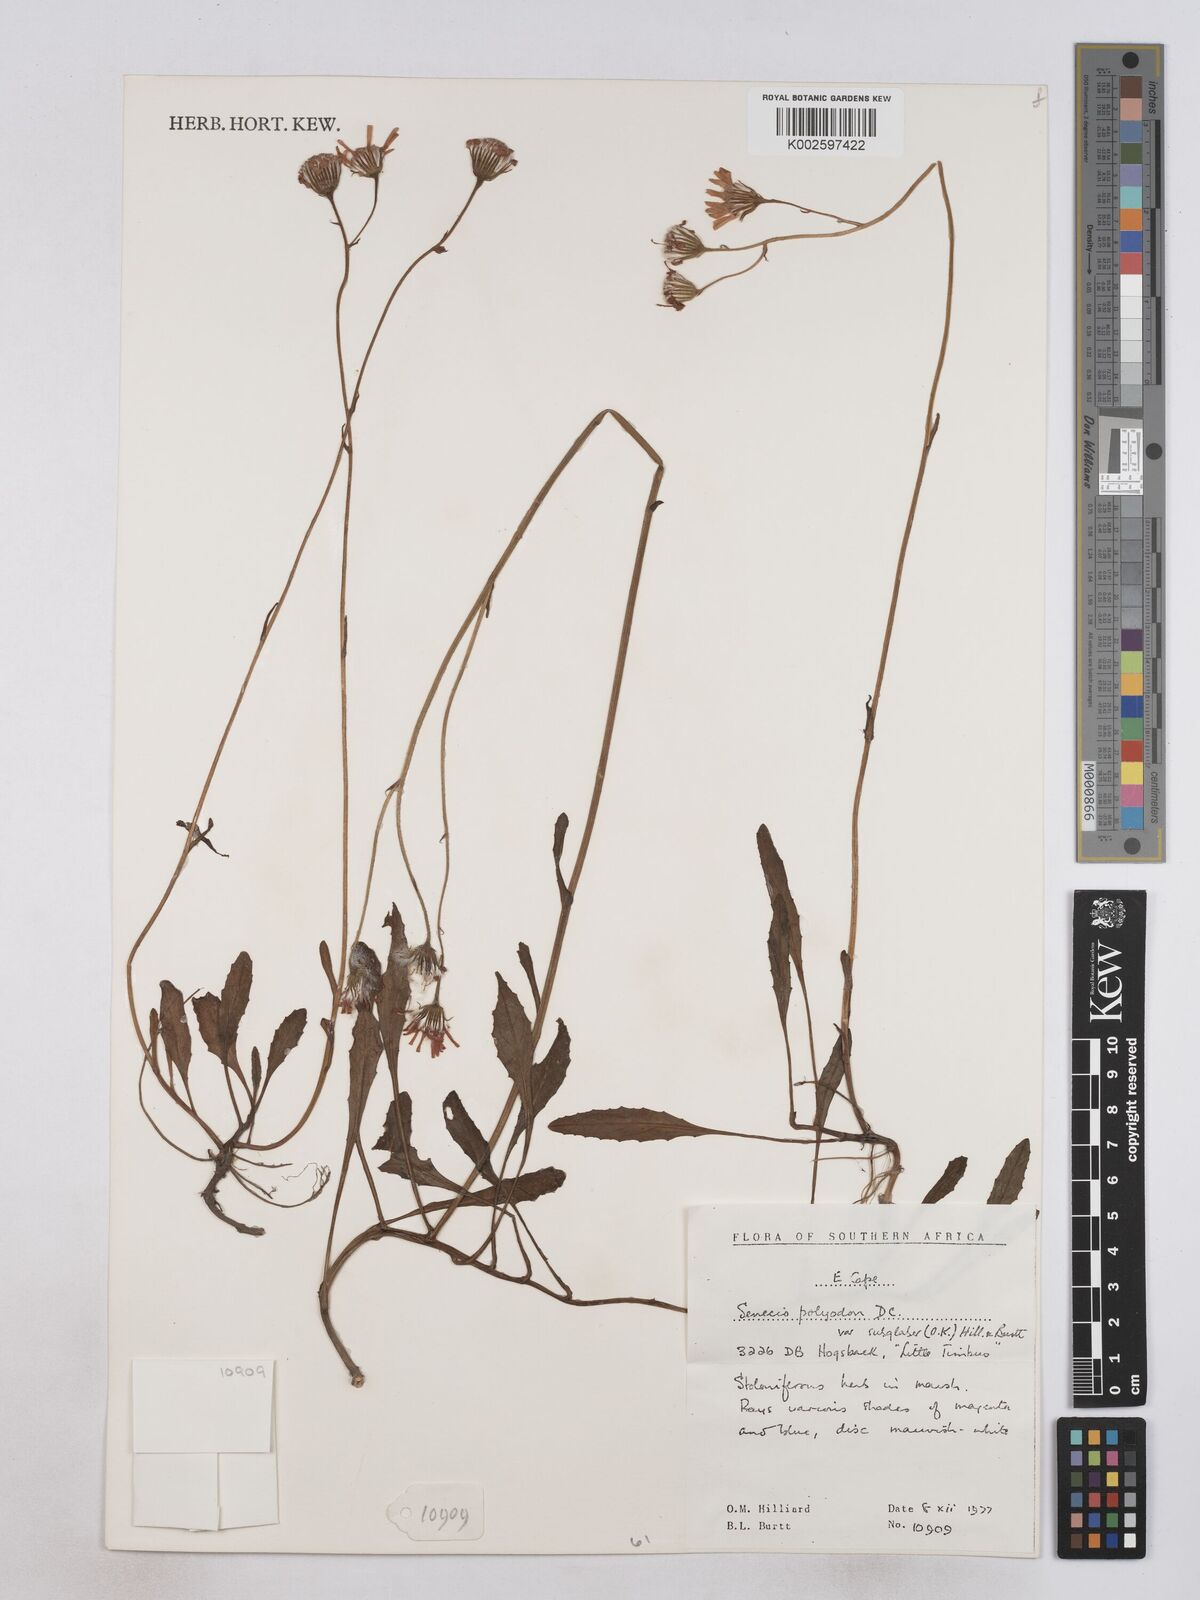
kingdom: Plantae
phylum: Tracheophyta
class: Magnoliopsida
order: Asterales
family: Asteraceae
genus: Senecio
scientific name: Senecio polyodon
